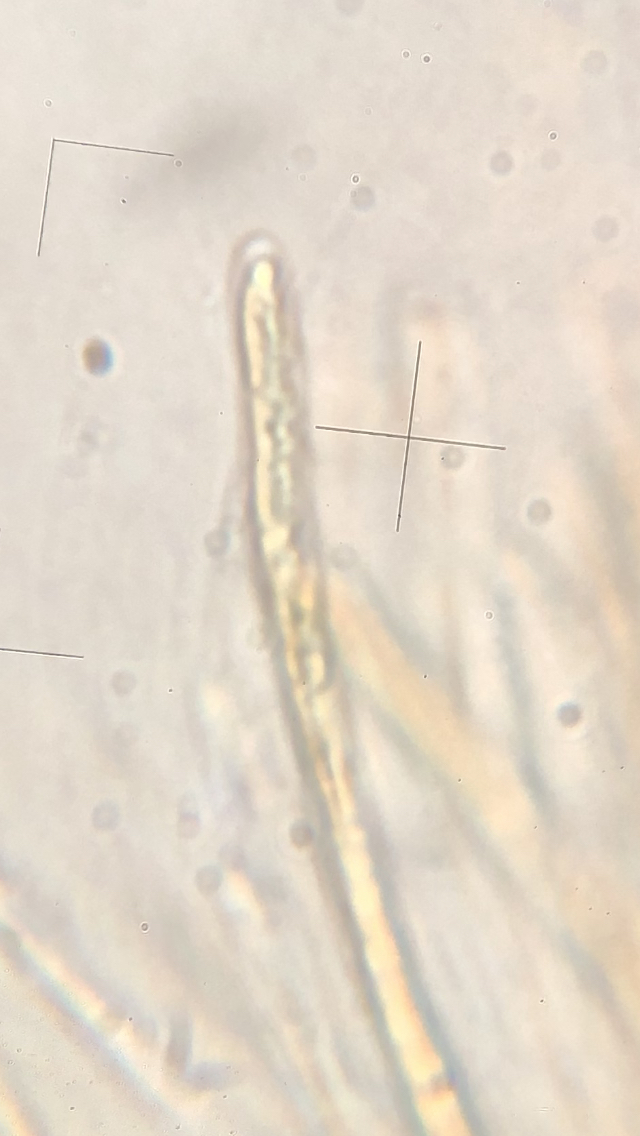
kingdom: Fungi
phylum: Ascomycota
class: Leotiomycetes
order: Helotiales
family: Vibrisseaceae
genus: Vibrissea
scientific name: Vibrissea filisporia
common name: kortsporet bækskive
